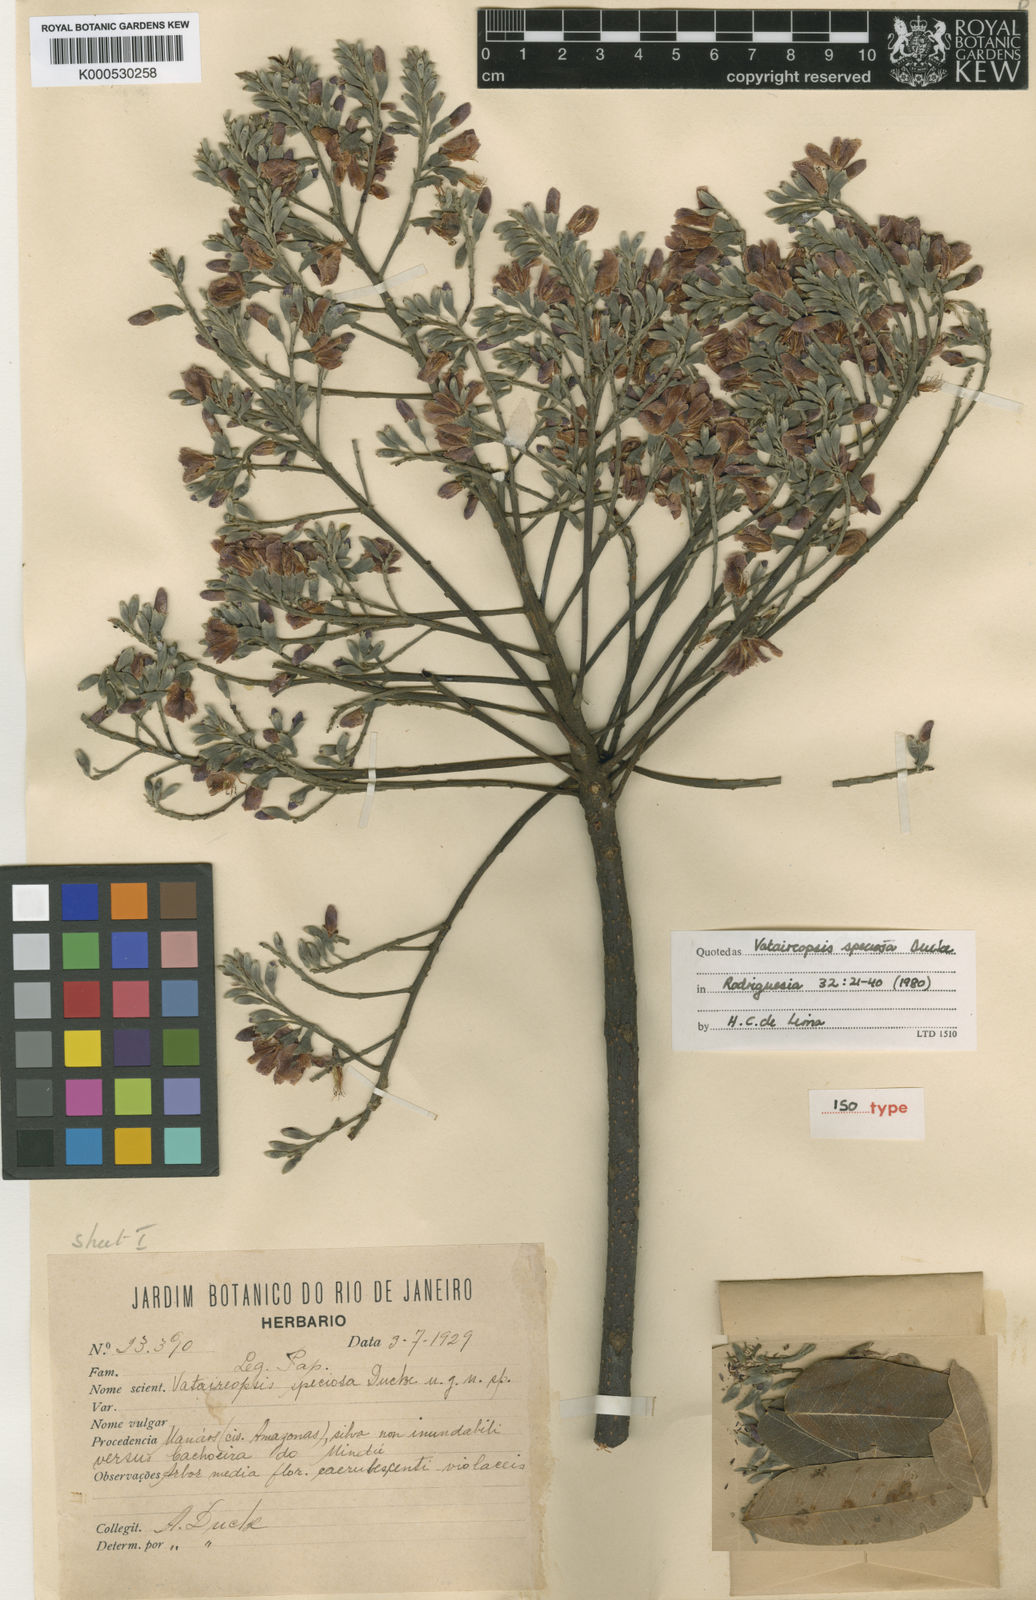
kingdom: Plantae
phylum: Tracheophyta
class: Magnoliopsida
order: Fabales
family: Fabaceae
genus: Vataireopsis
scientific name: Vataireopsis speciosa
